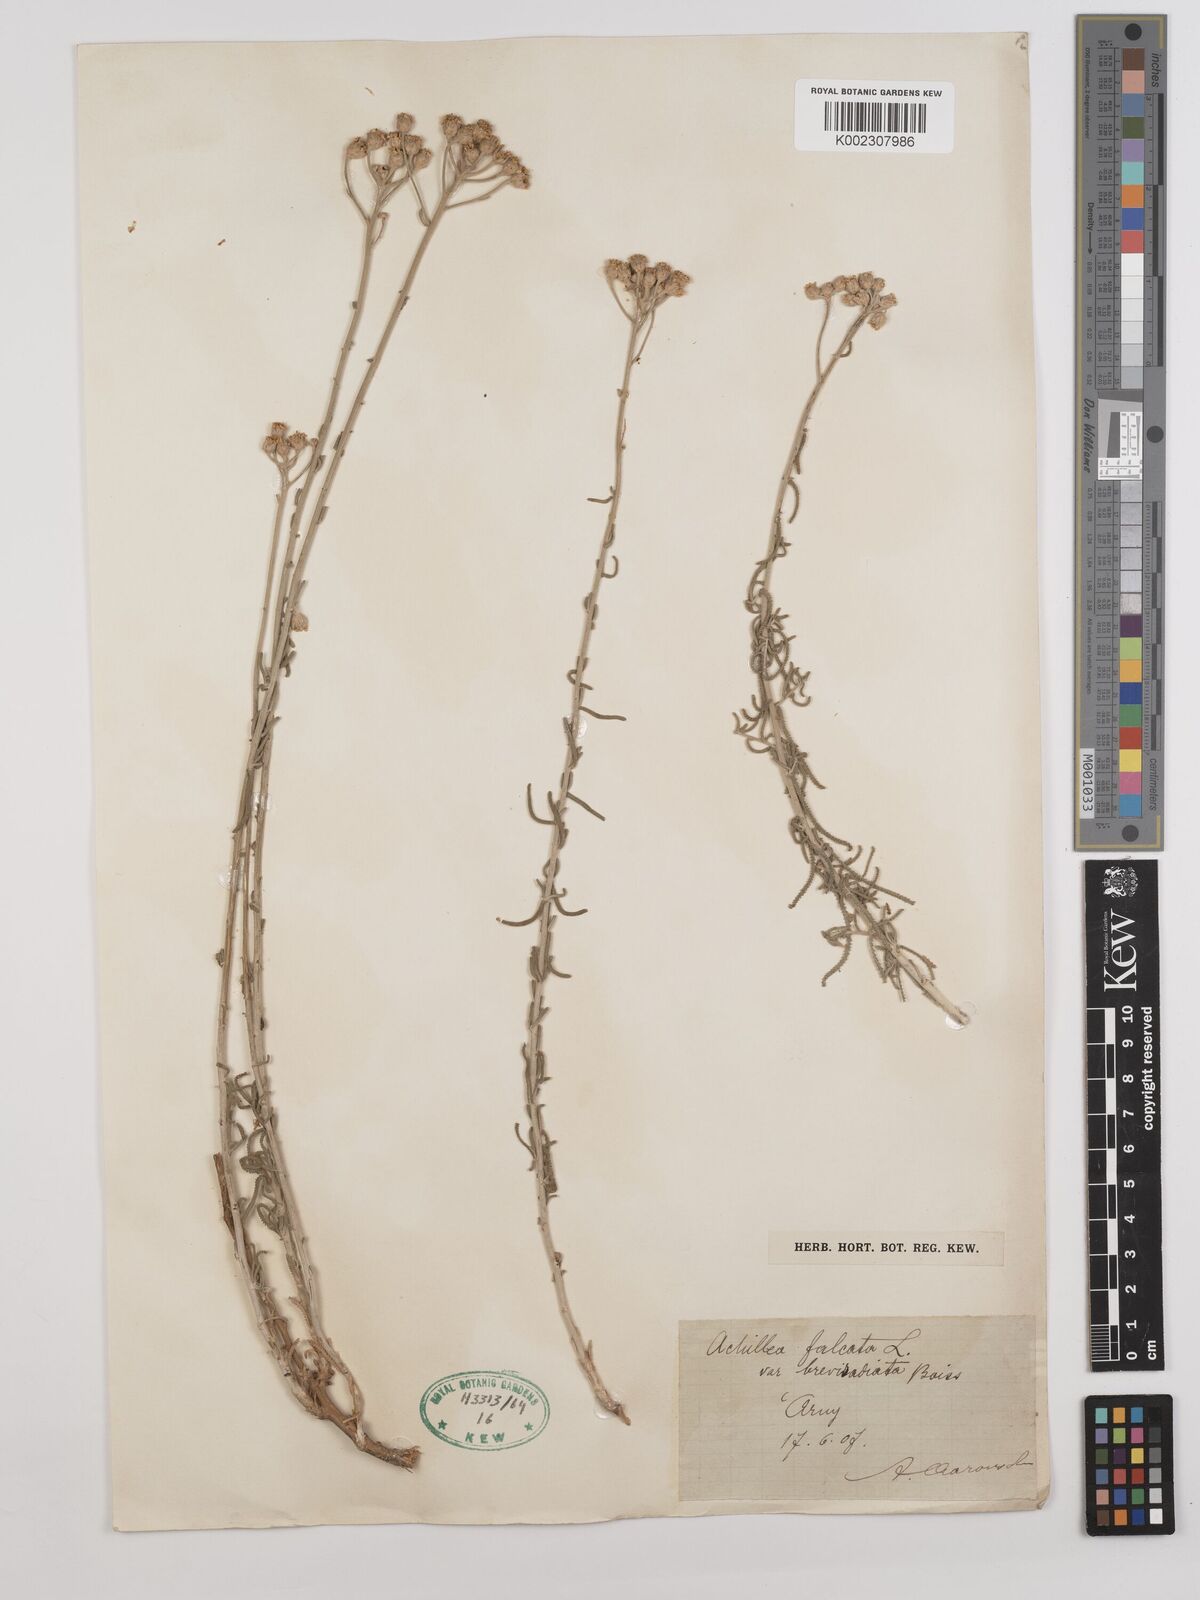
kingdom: Plantae
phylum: Tracheophyta
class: Magnoliopsida
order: Asterales
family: Asteraceae
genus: Achillea
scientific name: Achillea falcata
